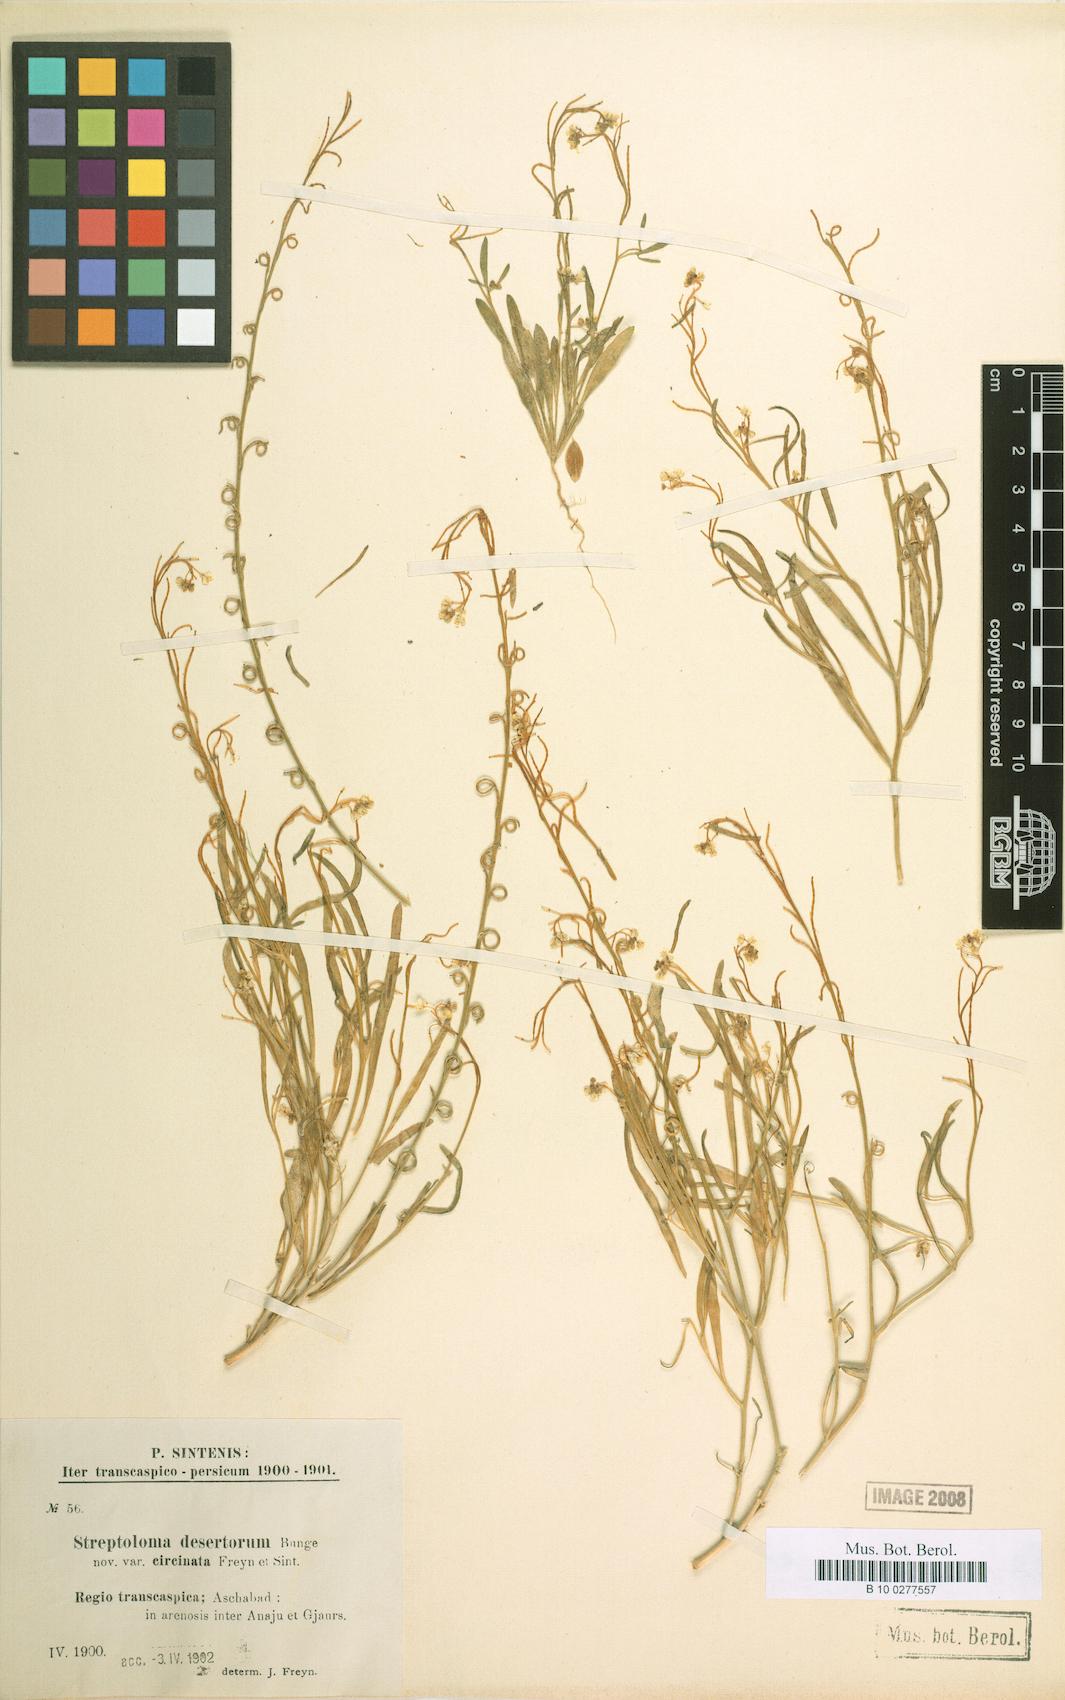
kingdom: Plantae
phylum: Tracheophyta
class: Magnoliopsida
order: Brassicales
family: Brassicaceae
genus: Streptoloma
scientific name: Streptoloma desertorum
